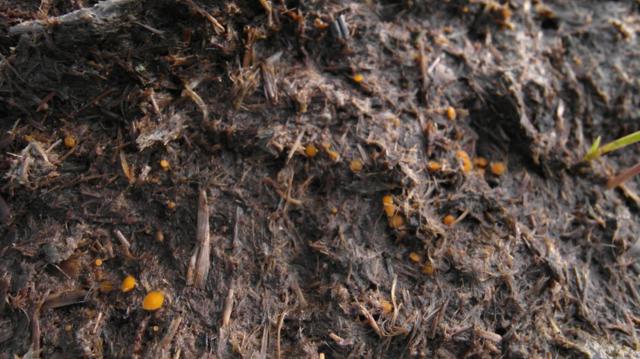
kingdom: Fungi
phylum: Ascomycota
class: Pezizomycetes
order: Pezizales
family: Pyronemataceae
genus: Cheilymenia
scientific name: Cheilymenia granulata
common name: møgbæger
